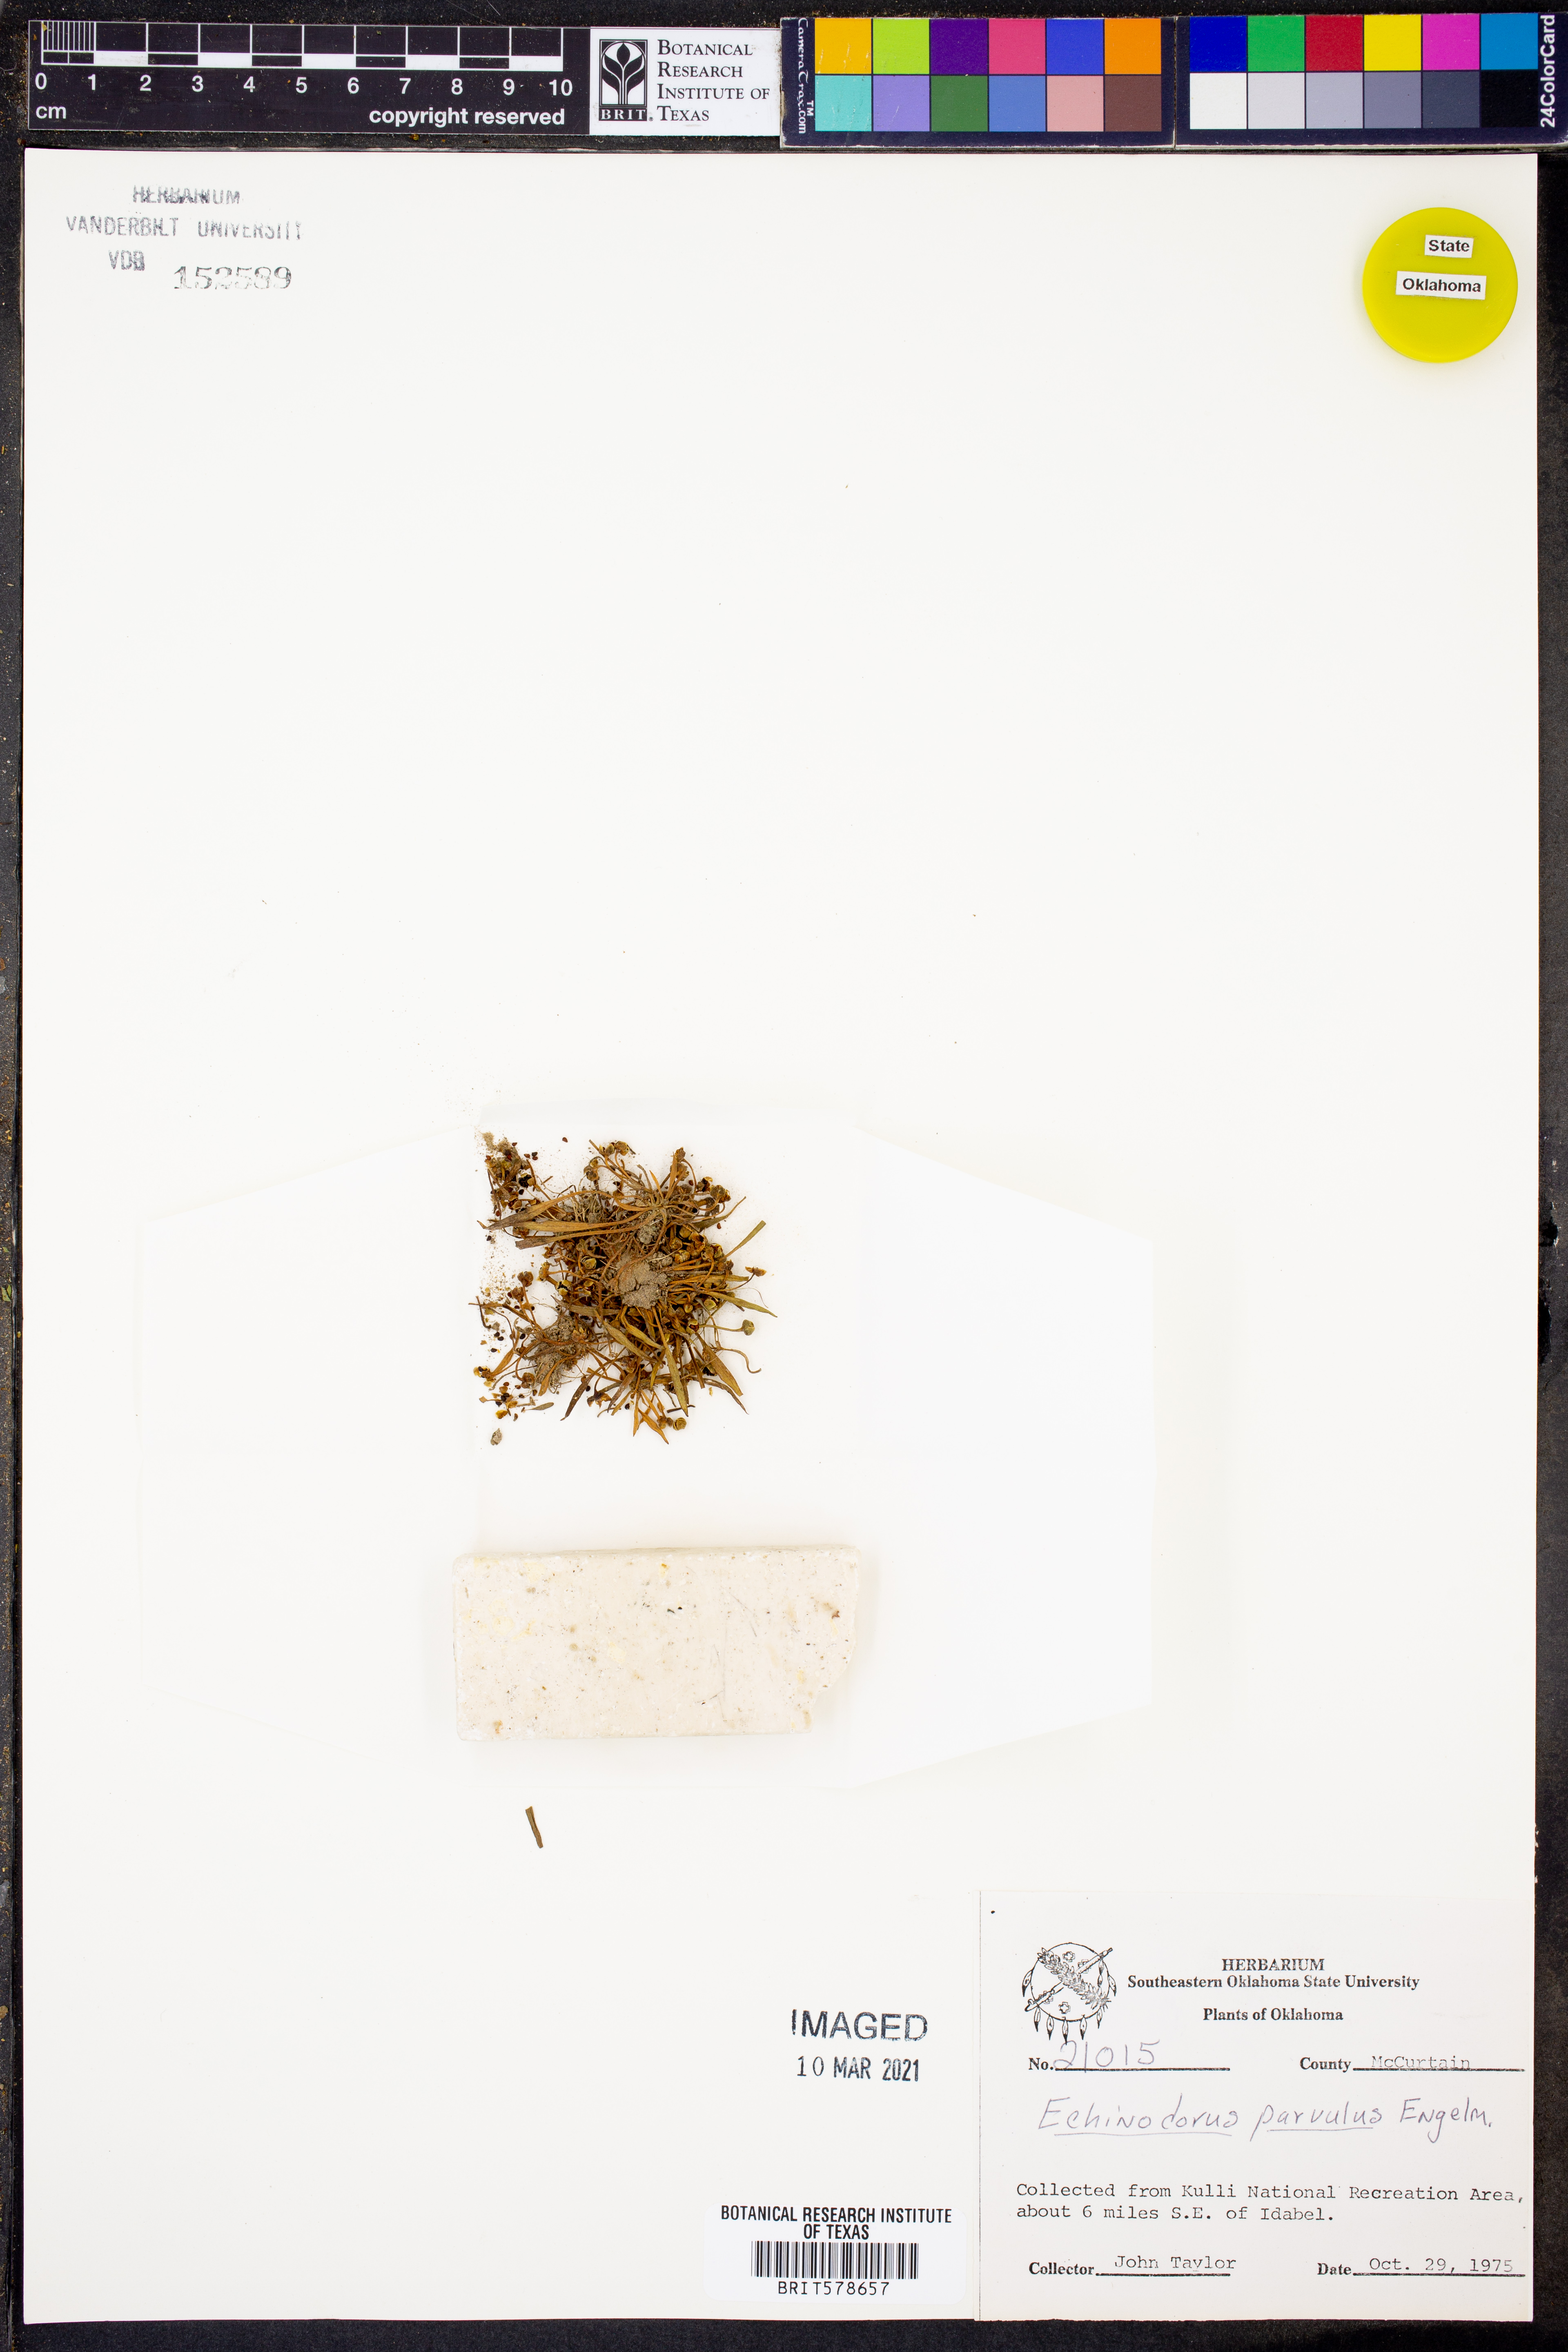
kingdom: Plantae
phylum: Tracheophyta
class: Liliopsida
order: Alismatales
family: Alismataceae
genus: Helanthium
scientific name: Helanthium tenellum
